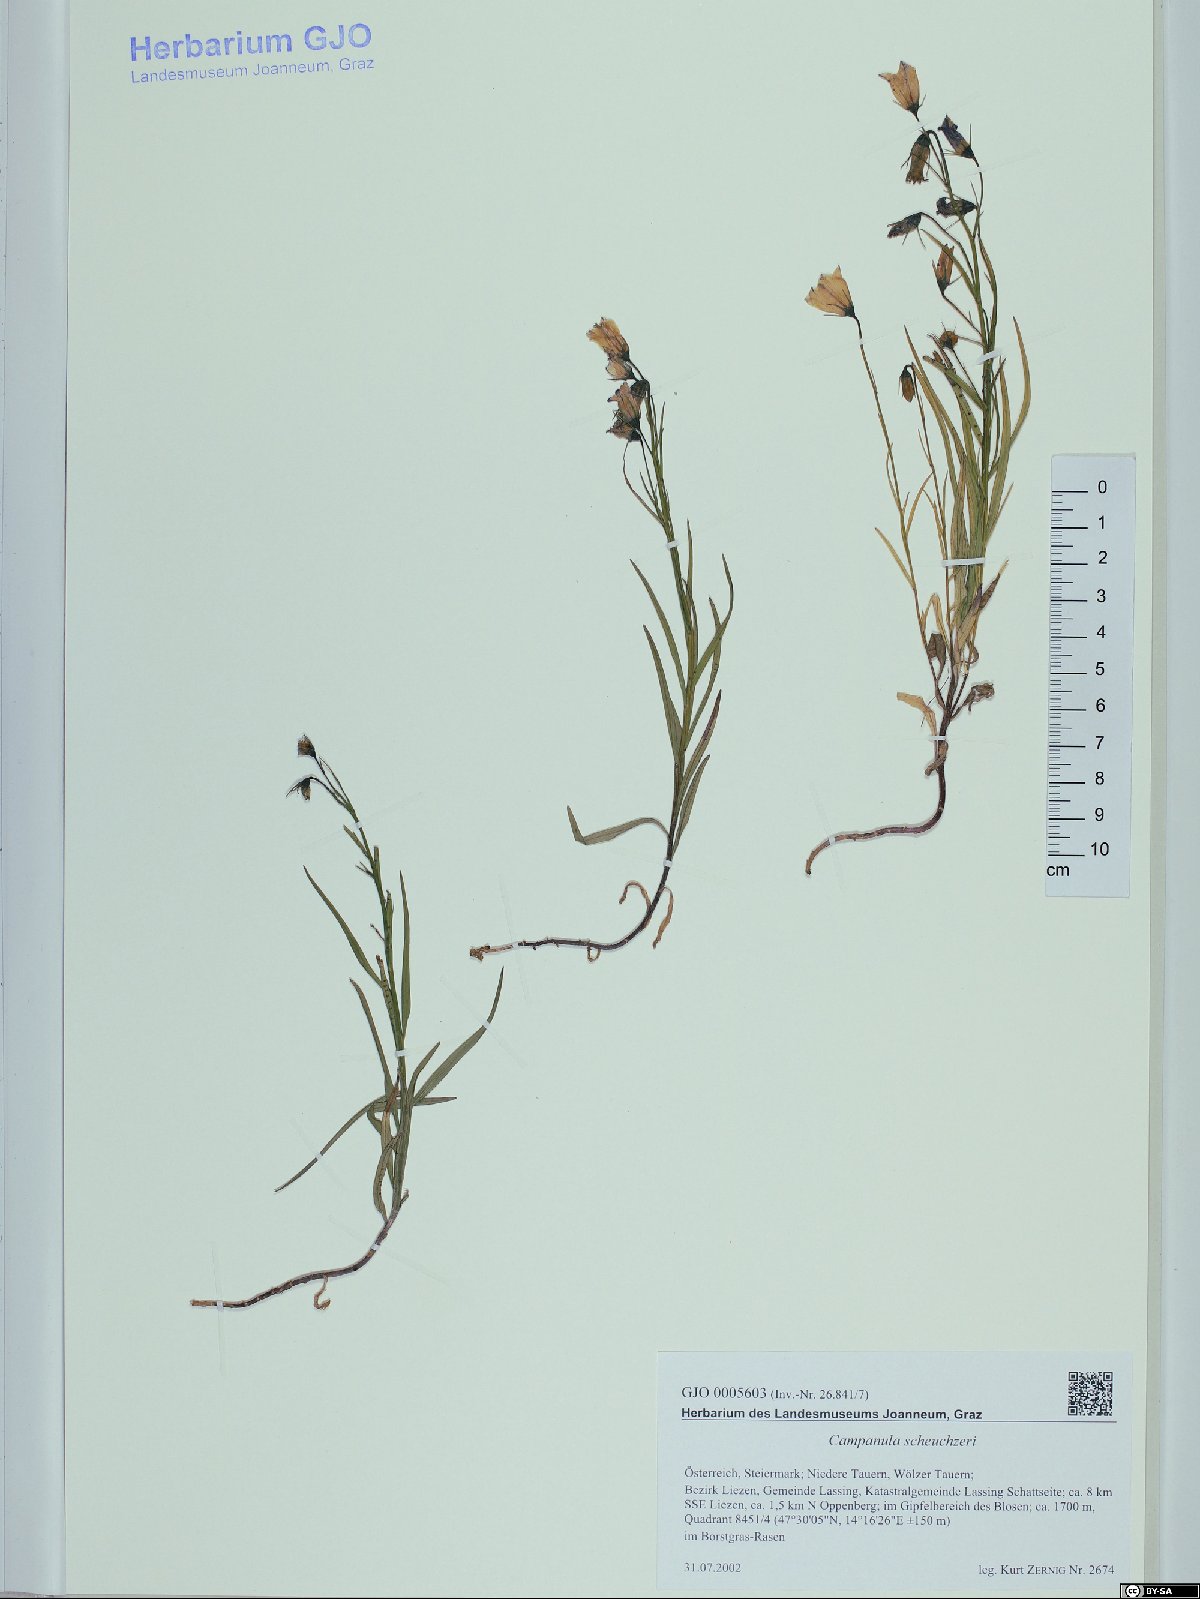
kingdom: Plantae
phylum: Tracheophyta
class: Magnoliopsida
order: Asterales
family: Campanulaceae
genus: Campanula
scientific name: Campanula scheuchzeri
